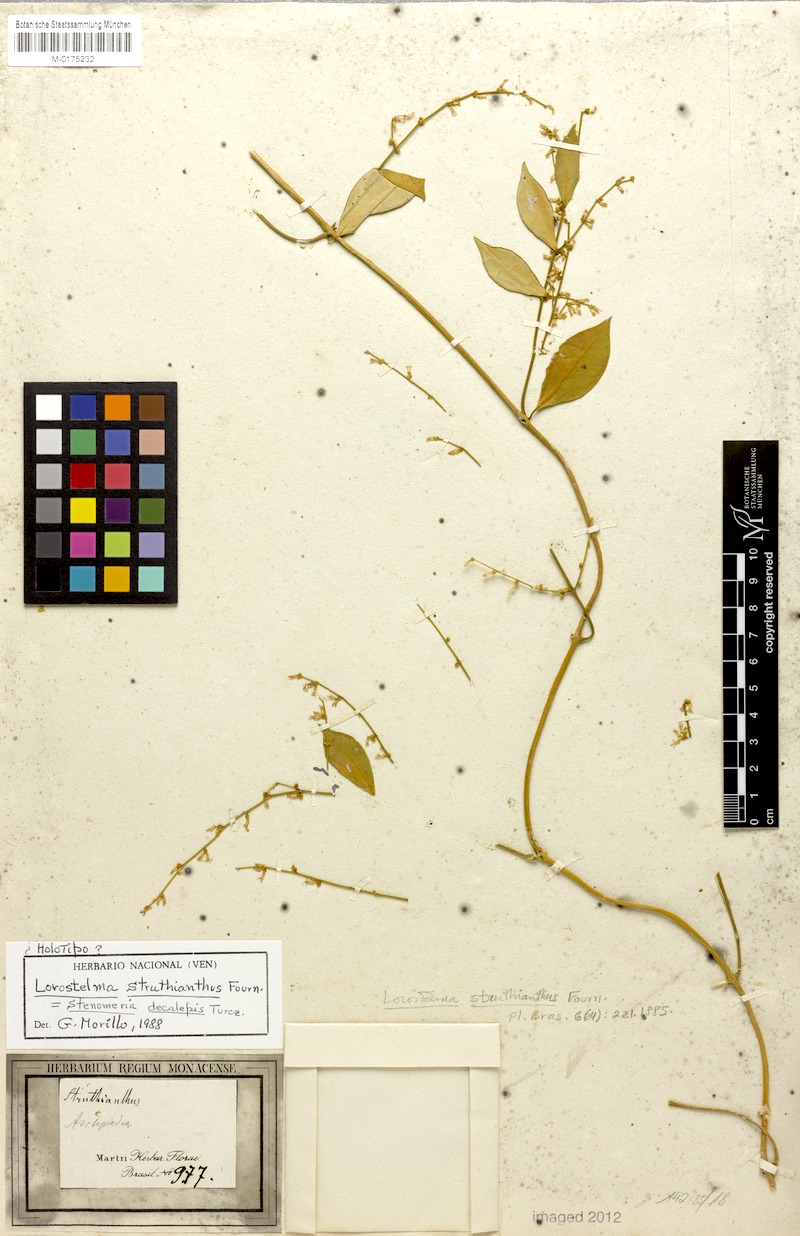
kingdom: Plantae
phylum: Tracheophyta
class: Magnoliopsida
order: Gentianales
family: Apocynaceae
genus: Tassadia
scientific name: Tassadia decalepis
